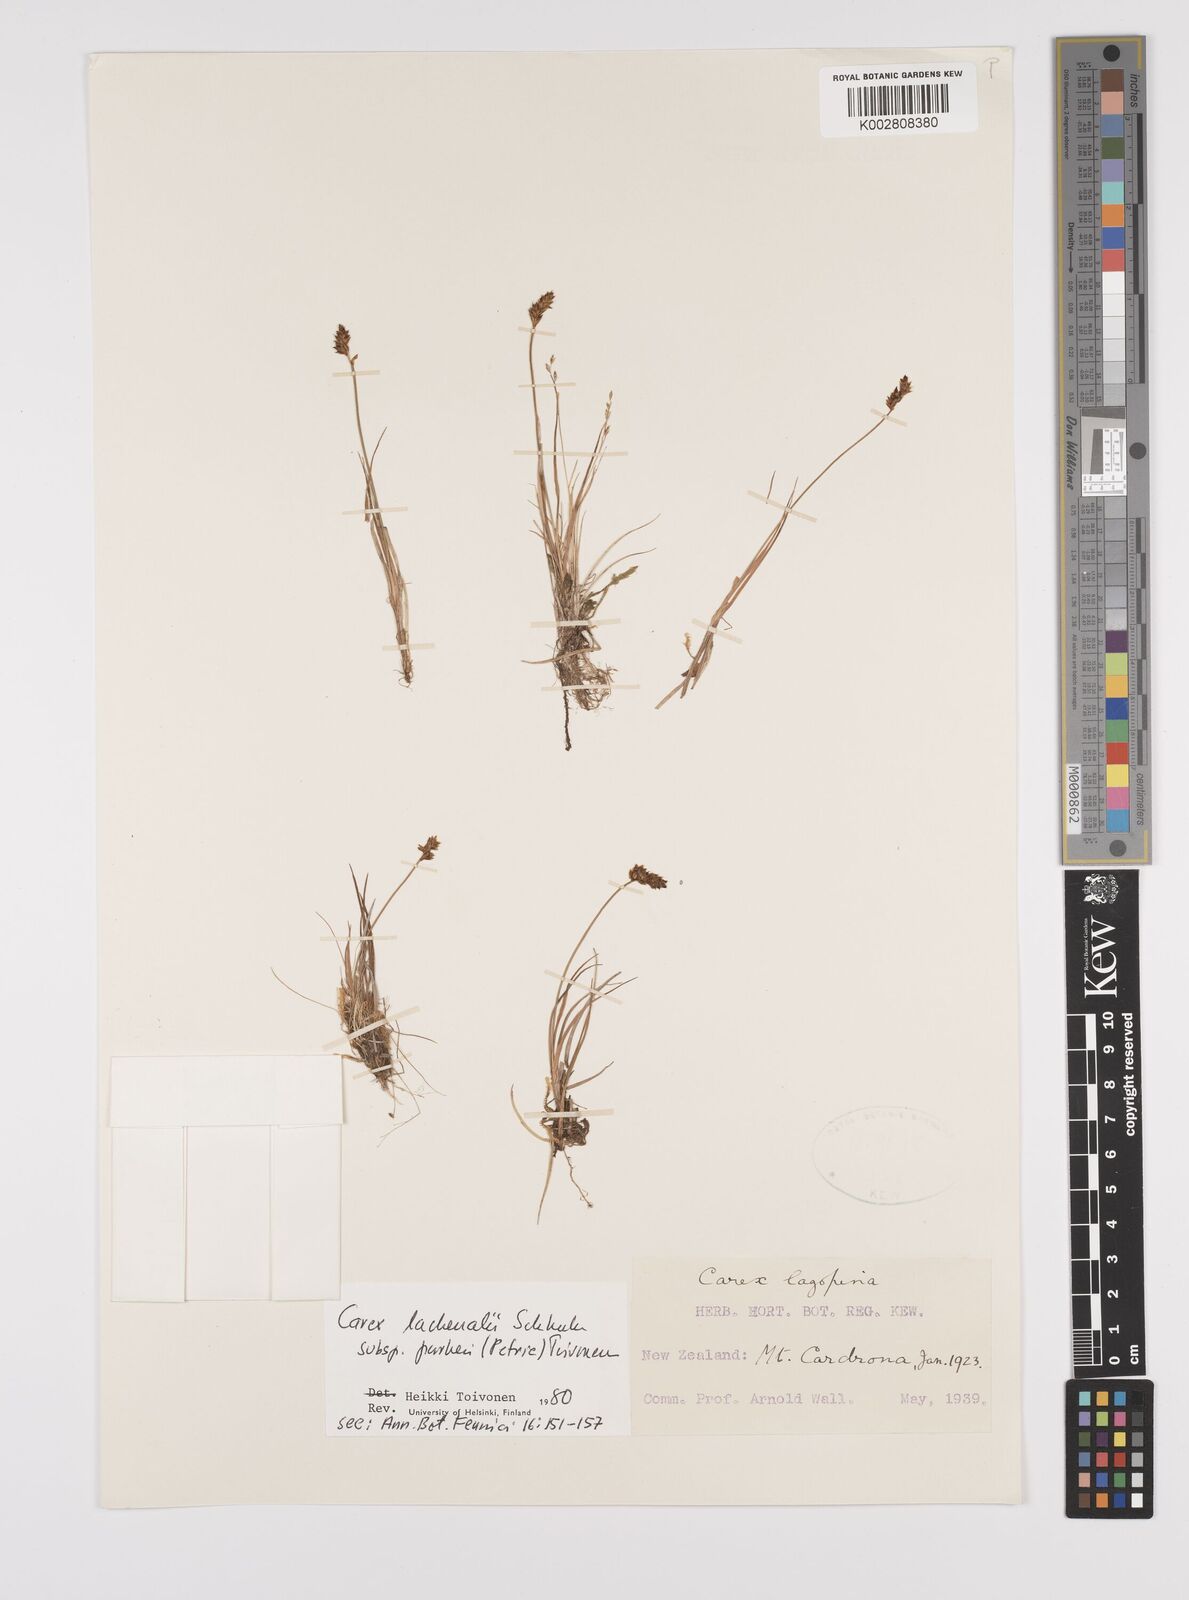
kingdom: Plantae
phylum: Tracheophyta
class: Liliopsida
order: Poales
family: Cyperaceae
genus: Carex
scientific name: Carex lachenalii
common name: Hare's-foot sedge
